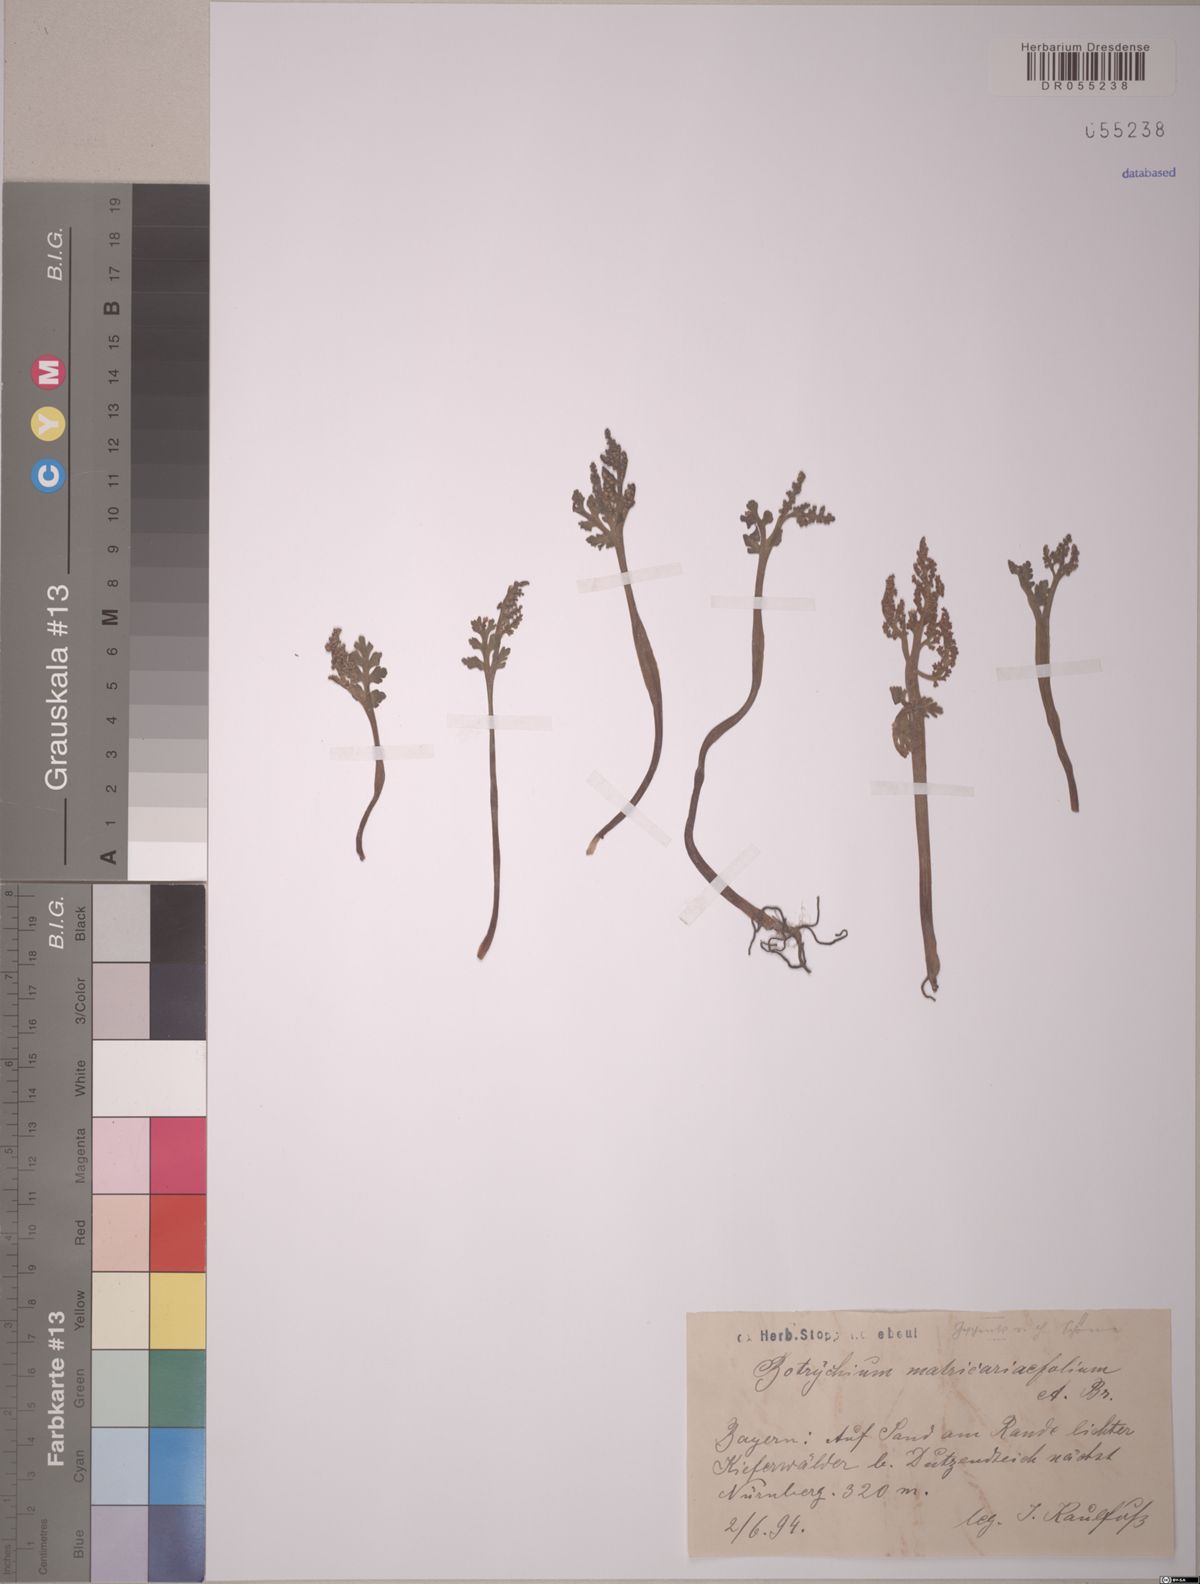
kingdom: Plantae
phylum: Tracheophyta
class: Polypodiopsida
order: Ophioglossales
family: Ophioglossaceae
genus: Botrychium
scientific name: Botrychium matricariifolium
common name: Branched moonwort
